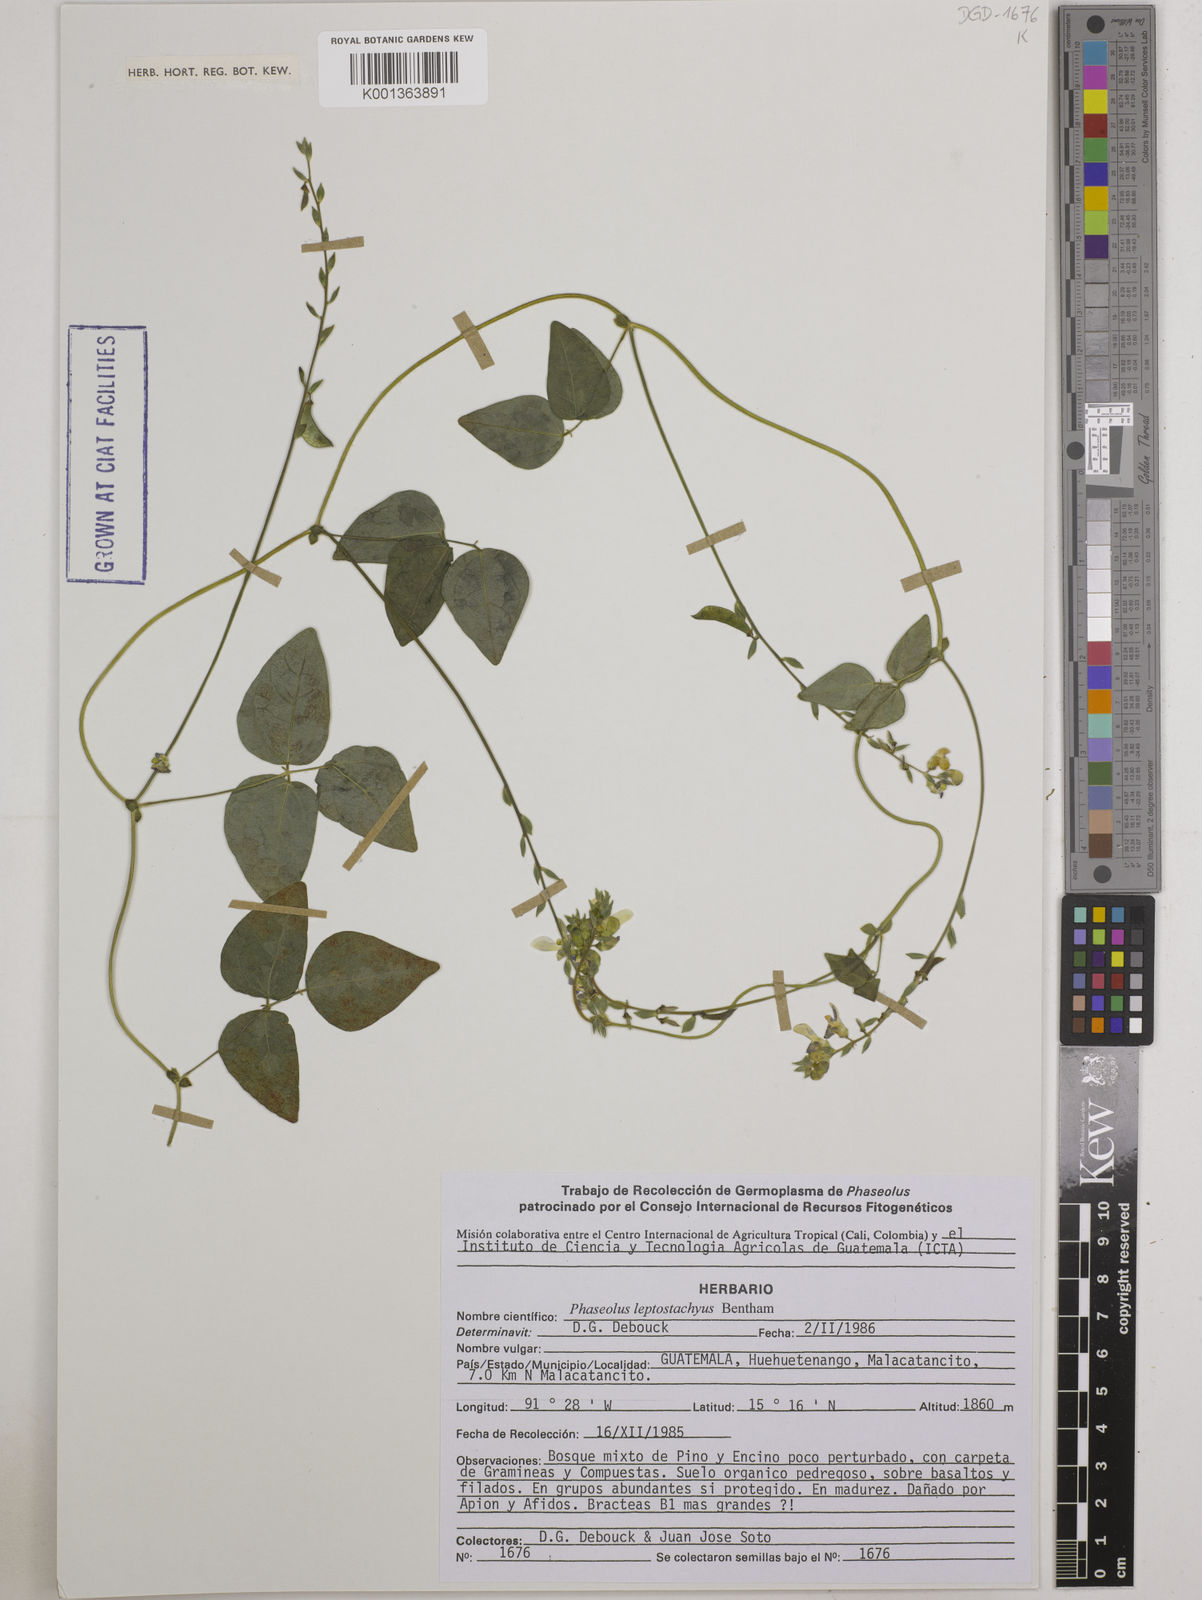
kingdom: Plantae
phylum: Tracheophyta
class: Magnoliopsida
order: Fabales
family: Fabaceae
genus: Phaseolus
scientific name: Phaseolus leptostachyus
